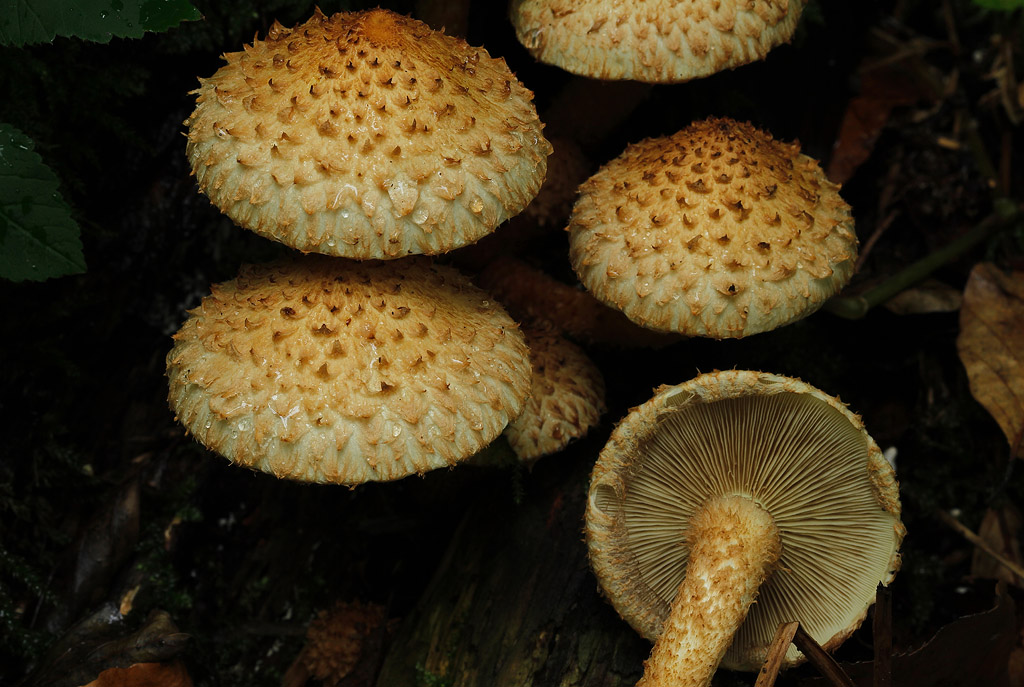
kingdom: Fungi
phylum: Basidiomycota
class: Agaricomycetes
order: Agaricales
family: Strophariaceae
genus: Pholiota
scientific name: Pholiota squarrosa
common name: krumskællet skælhat
